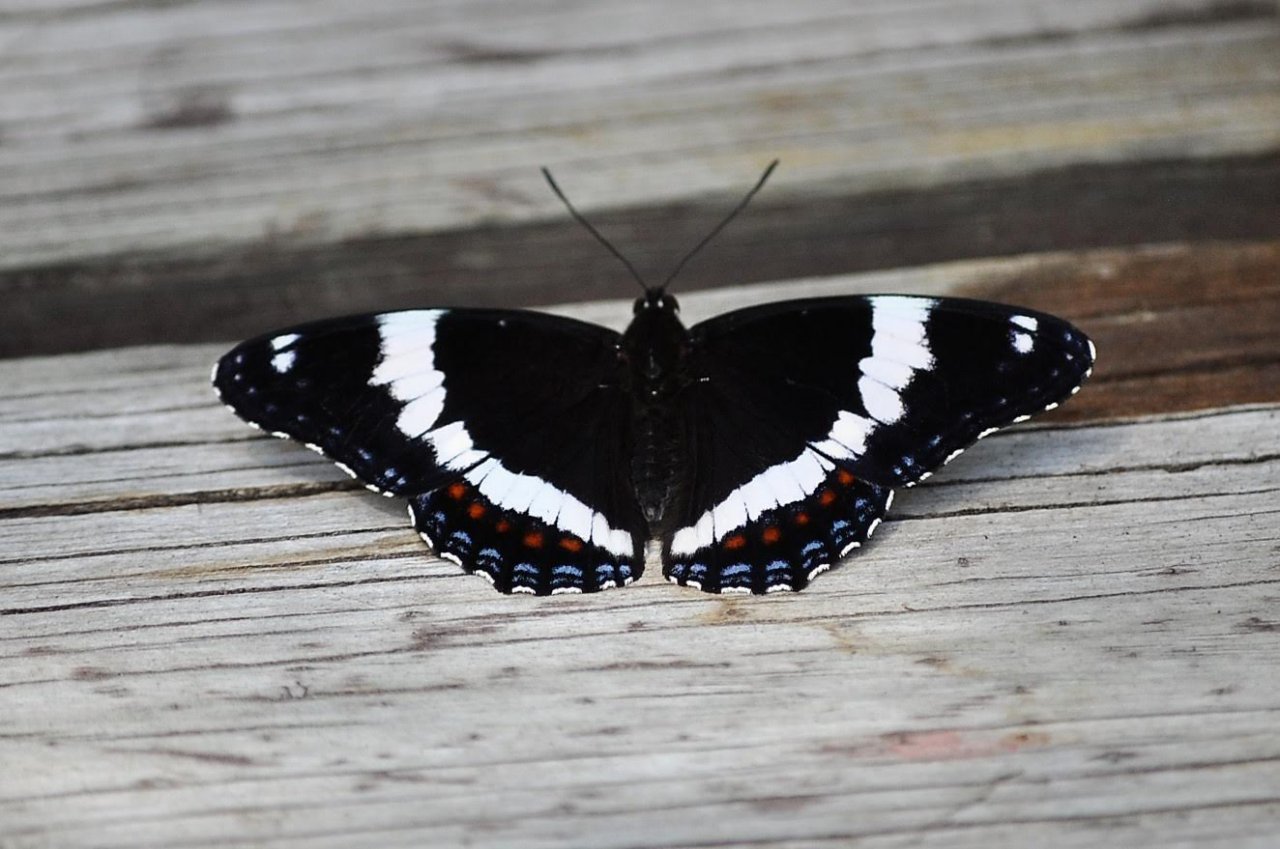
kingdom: Animalia
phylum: Arthropoda
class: Insecta
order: Lepidoptera
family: Nymphalidae
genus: Limenitis
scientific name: Limenitis arthemis
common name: Red-spotted Admiral
